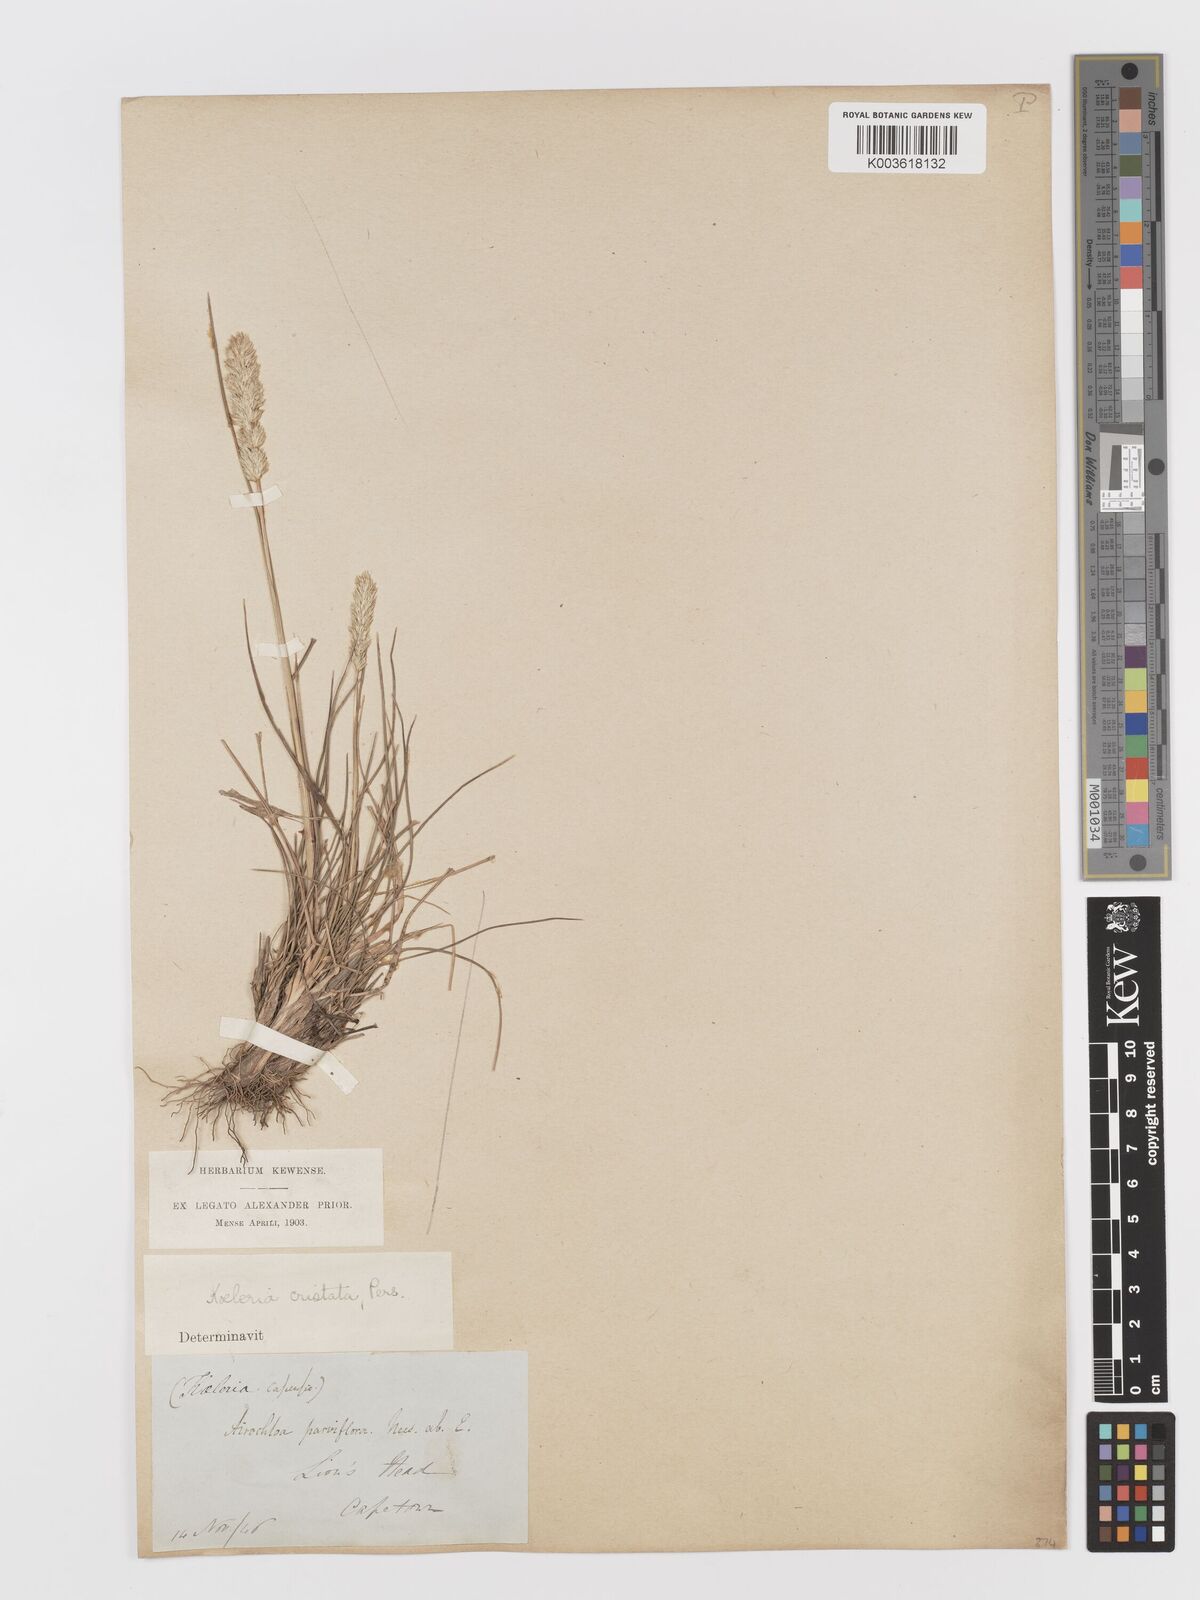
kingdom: Plantae
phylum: Tracheophyta
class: Liliopsida
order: Poales
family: Poaceae
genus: Koeleria
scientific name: Koeleria capensis
